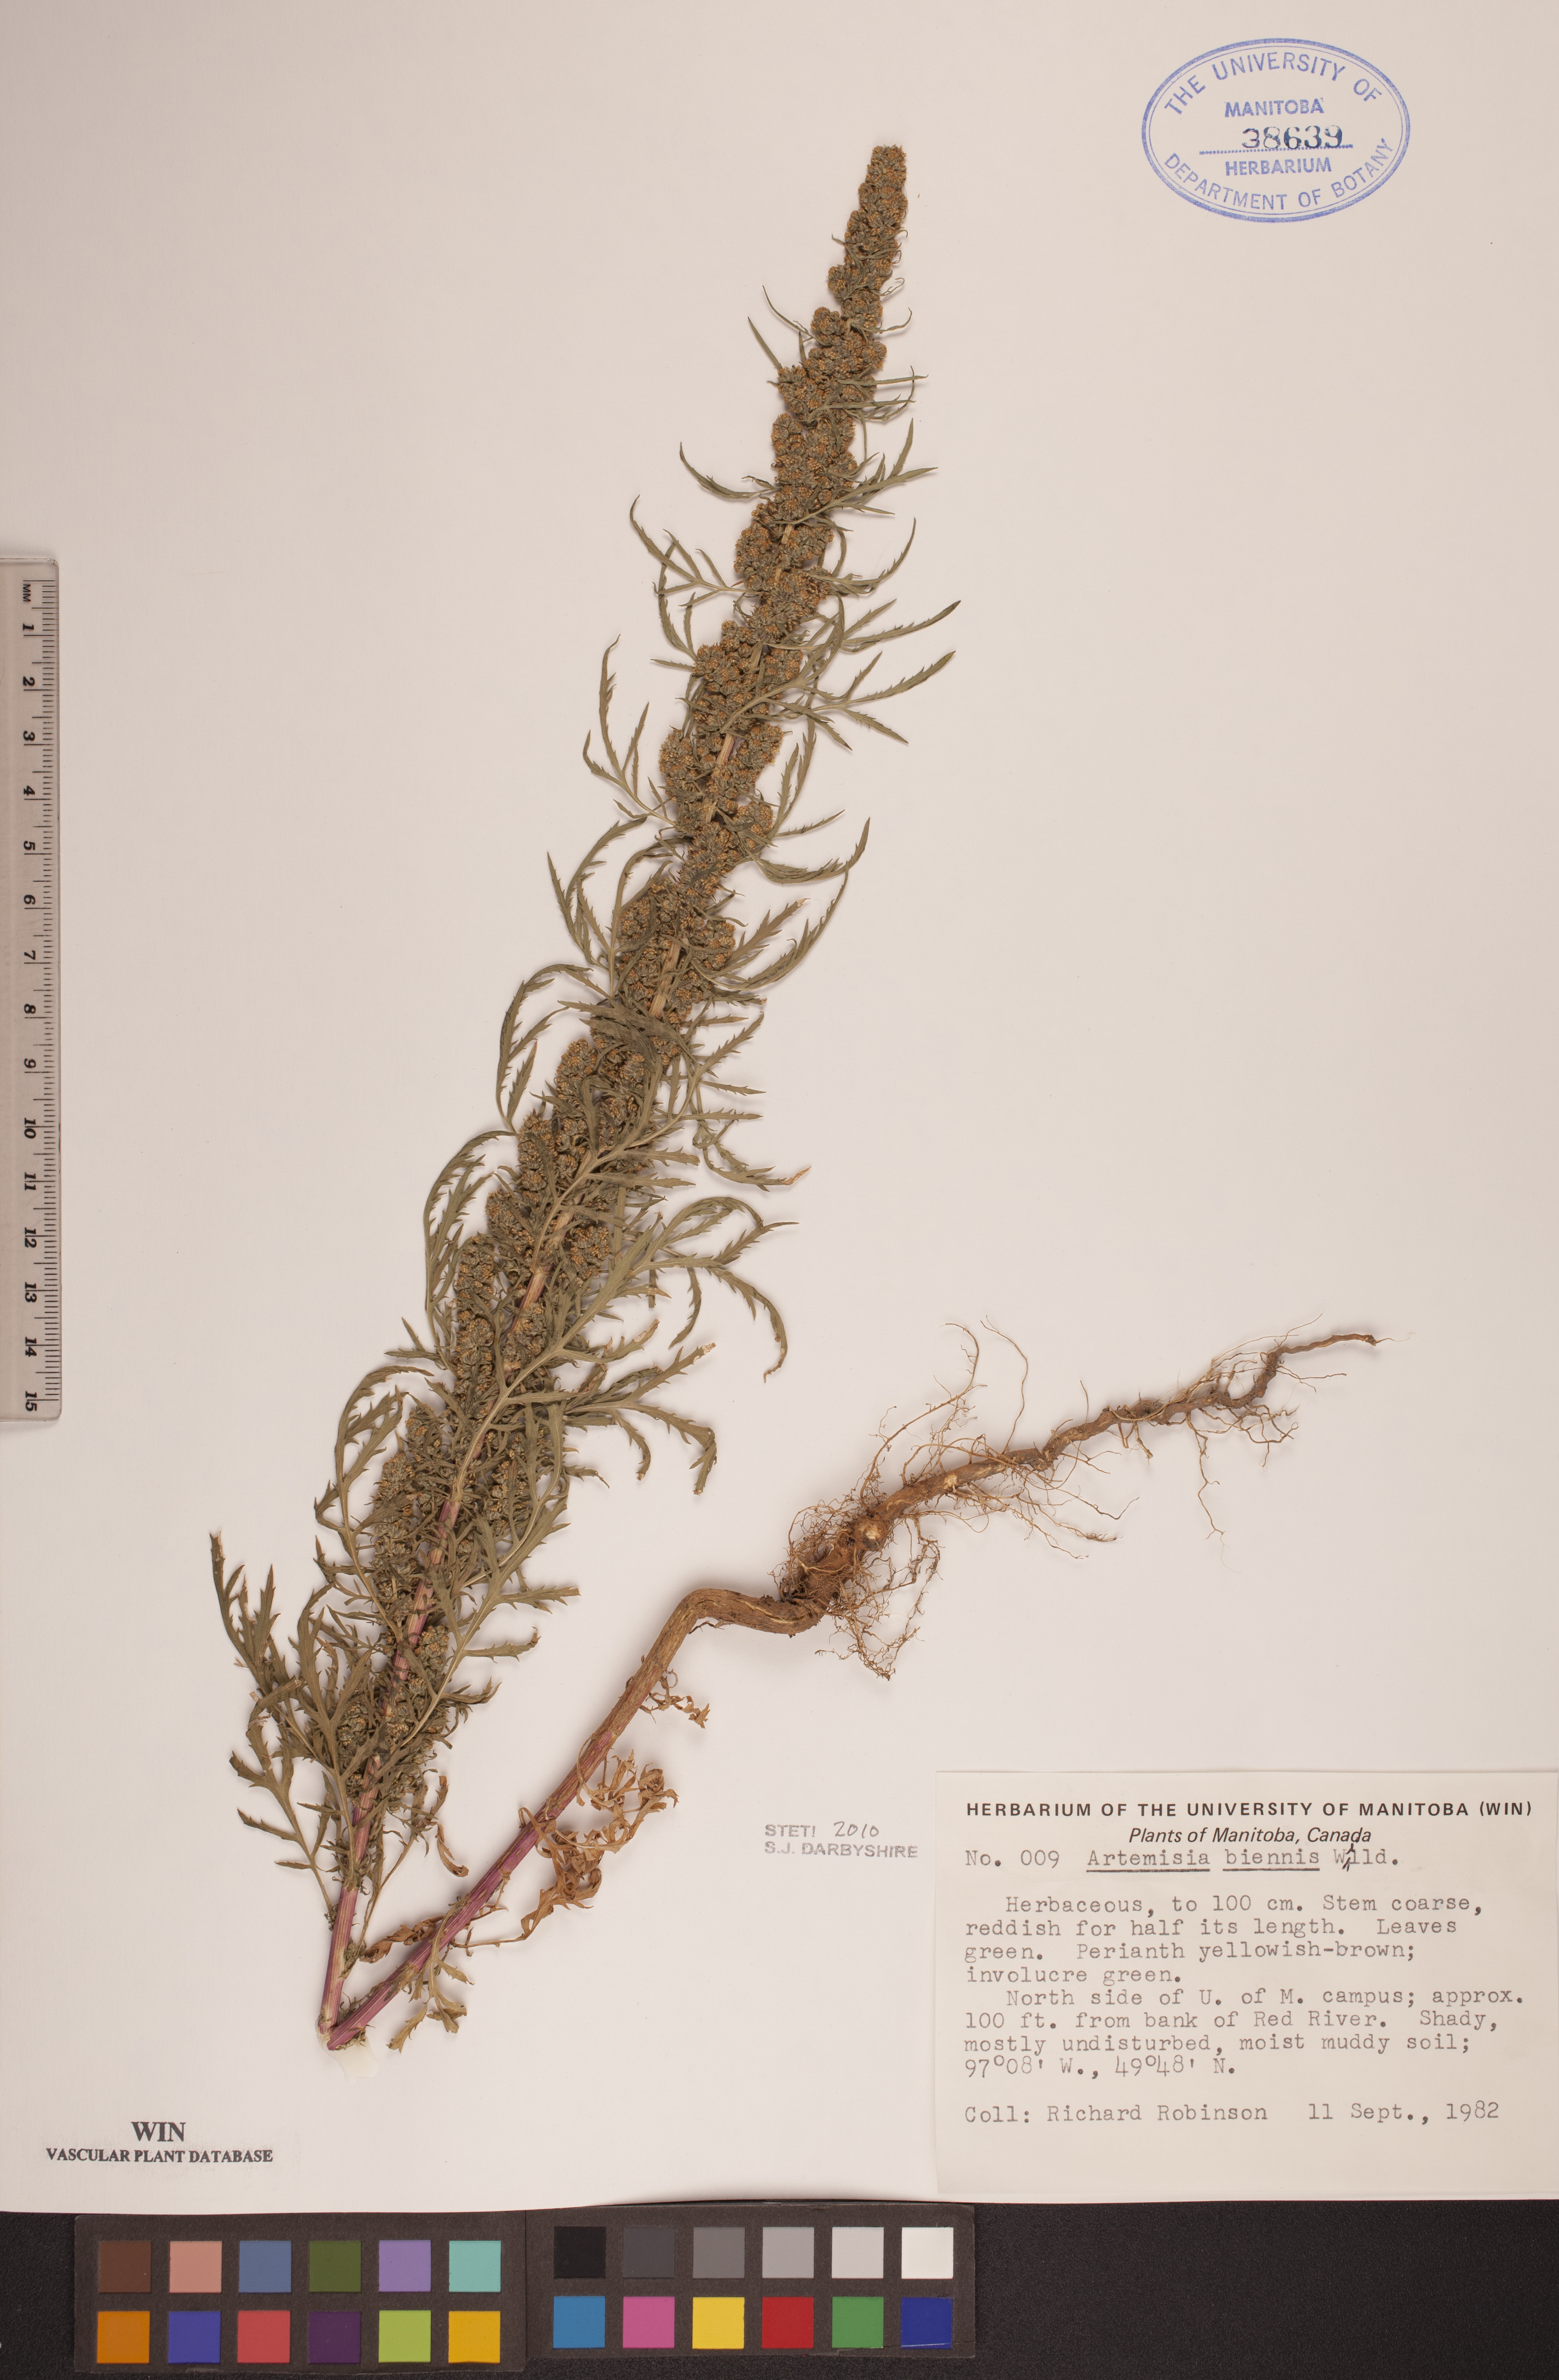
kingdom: Plantae
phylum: Tracheophyta
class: Magnoliopsida
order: Asterales
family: Asteraceae
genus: Artemisia
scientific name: Artemisia biennis
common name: Biennial wormwood
